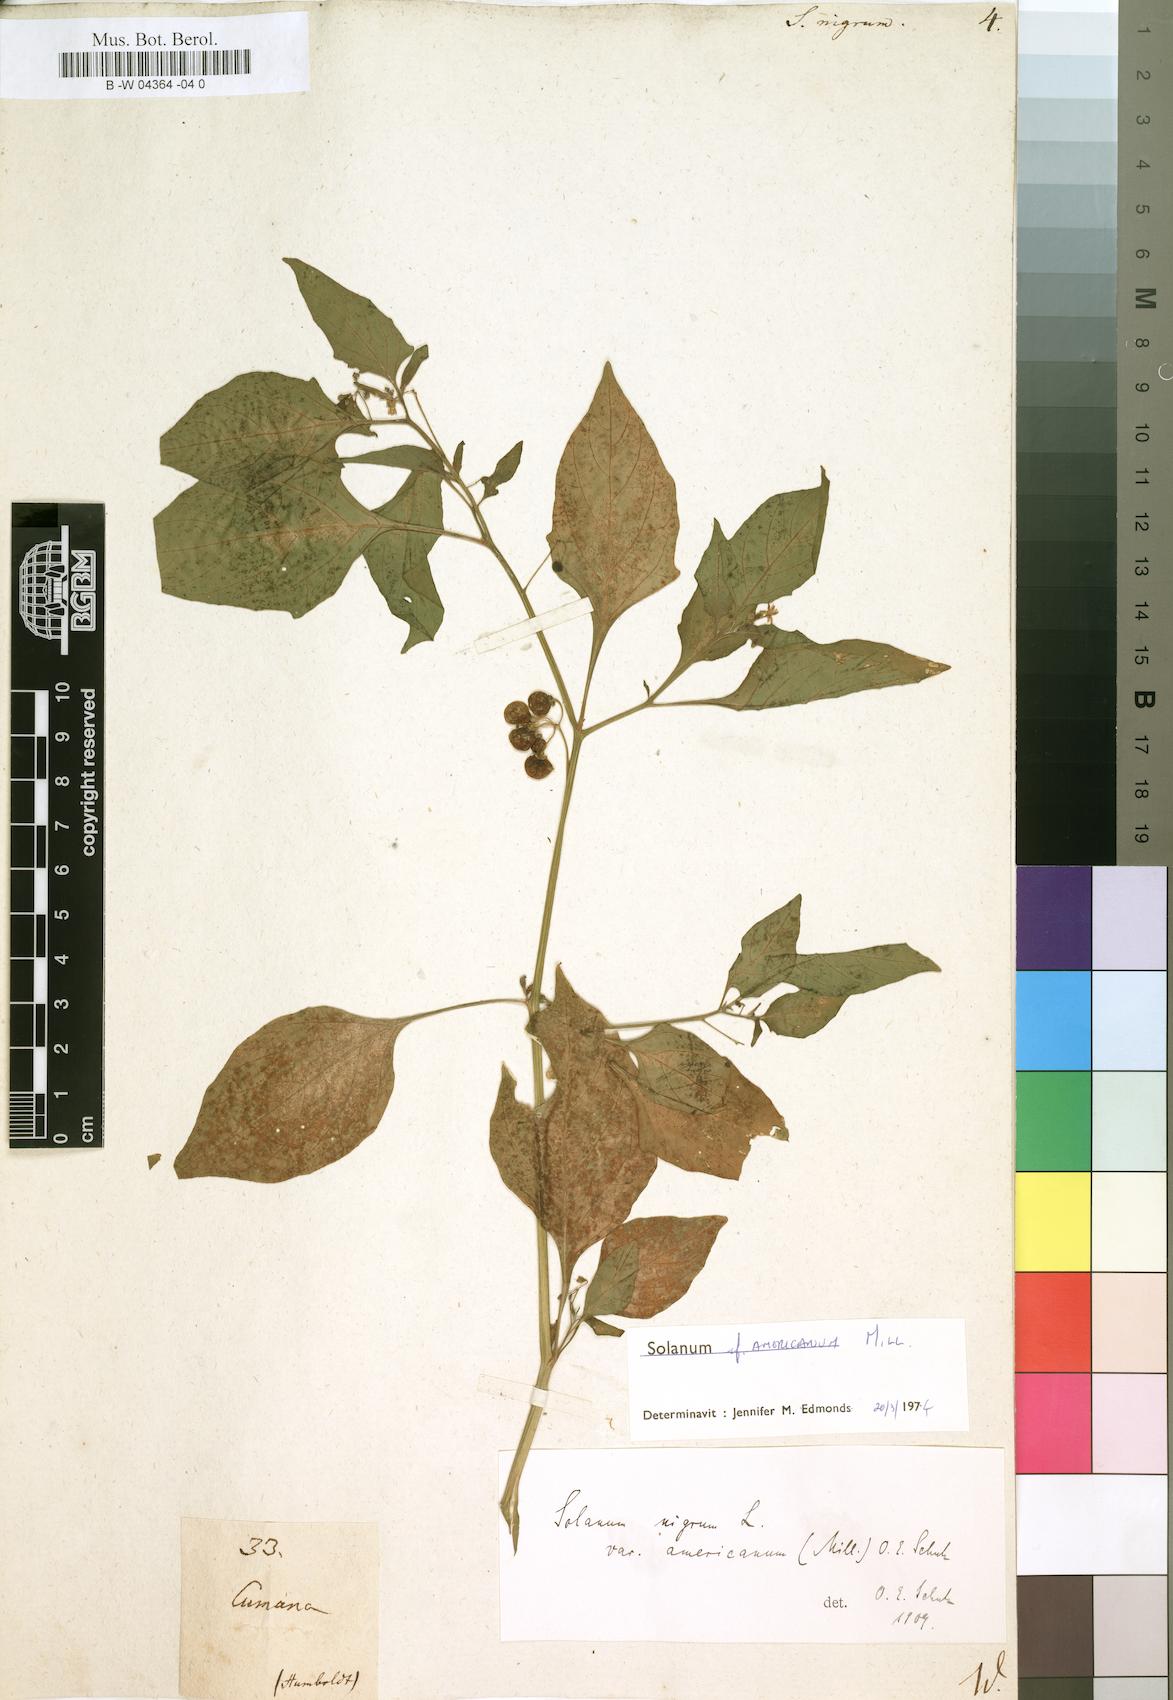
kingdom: Plantae
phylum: Tracheophyta
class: Magnoliopsida
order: Solanales
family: Solanaceae
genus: Solanum
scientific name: Solanum nigrum
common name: Black nightshade
